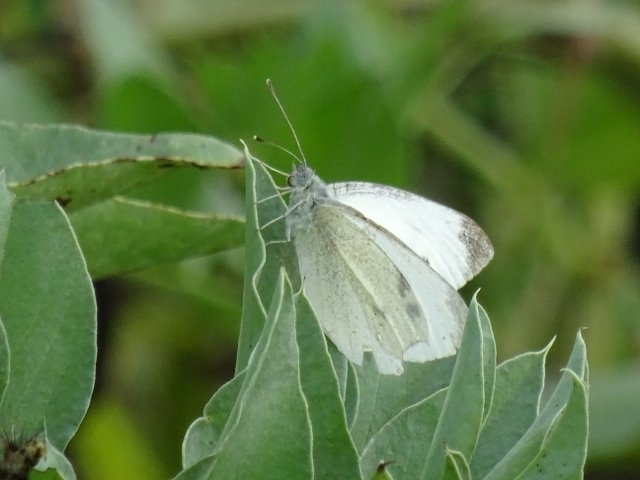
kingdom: Animalia
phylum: Arthropoda
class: Insecta
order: Lepidoptera
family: Pieridae
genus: Pieris
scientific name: Pieris rapae
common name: Cabbage White
